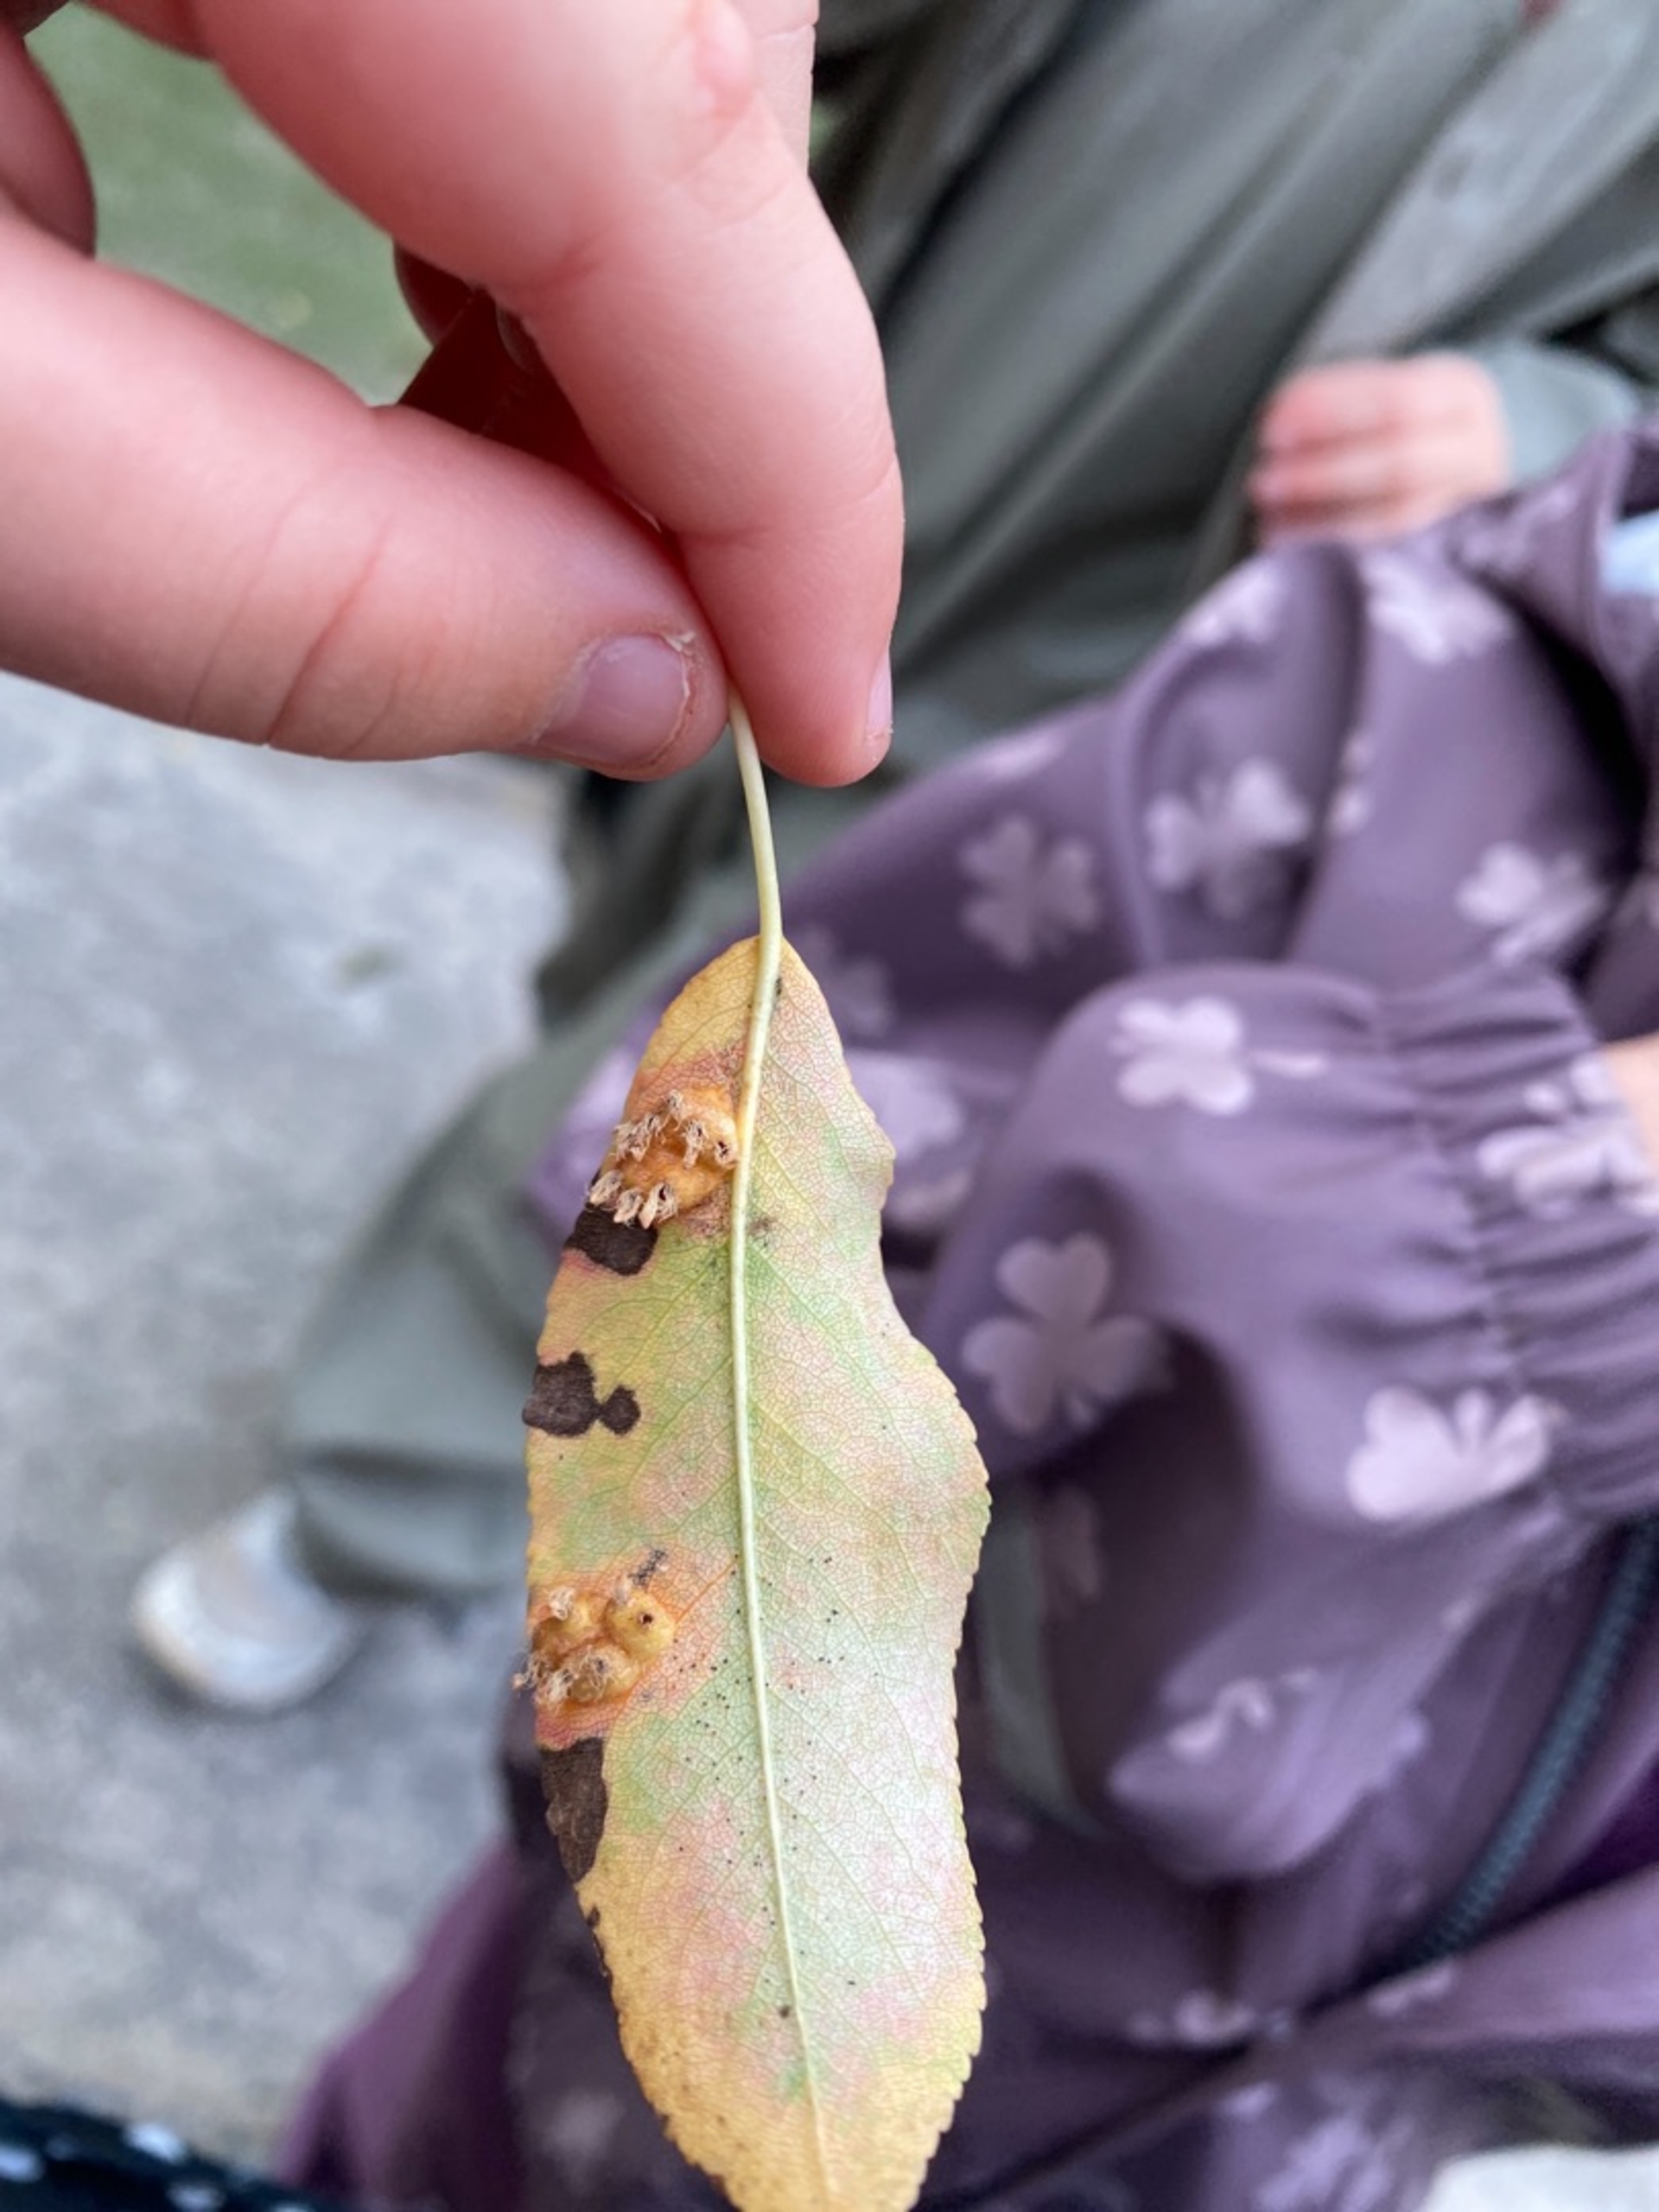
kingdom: Fungi
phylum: Basidiomycota
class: Pucciniomycetes
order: Pucciniales
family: Gymnosporangiaceae
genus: Gymnosporangium
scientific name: Gymnosporangium sabinae
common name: Pæregitter-bævrerust
